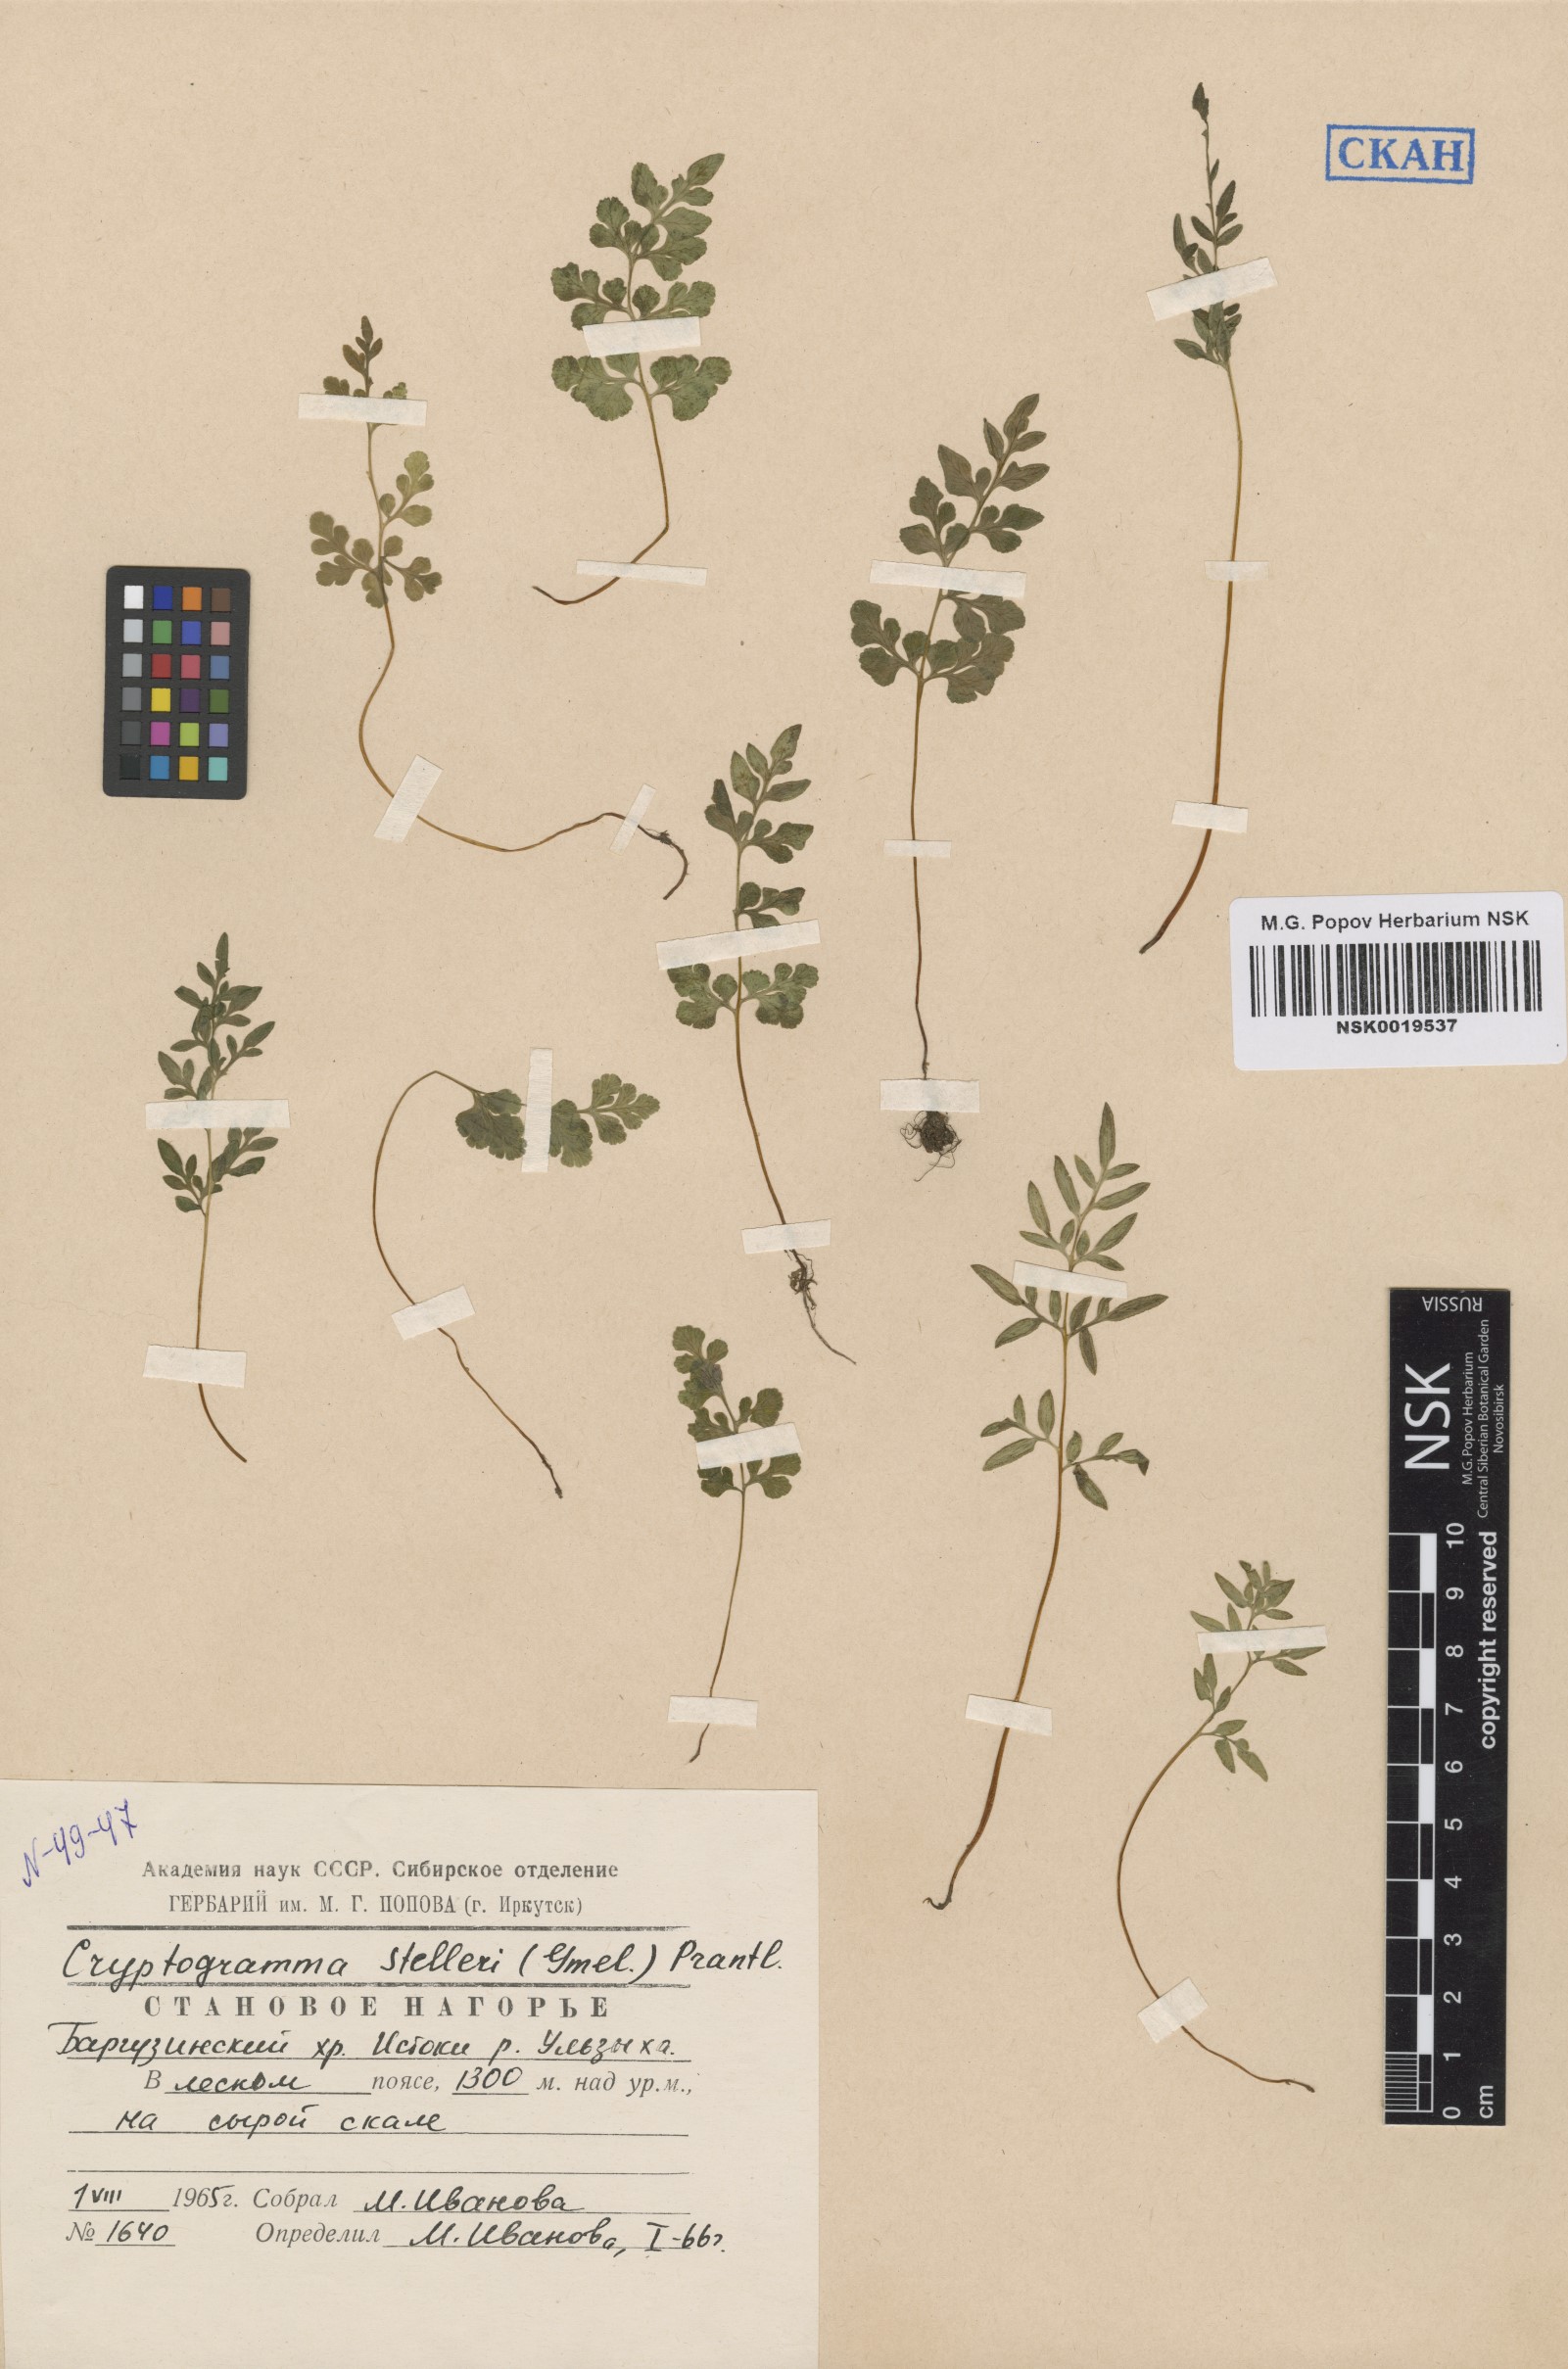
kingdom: Plantae
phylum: Tracheophyta
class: Polypodiopsida
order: Polypodiales
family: Pteridaceae
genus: Cryptogramma
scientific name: Cryptogramma stelleri
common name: Cliff-brake
